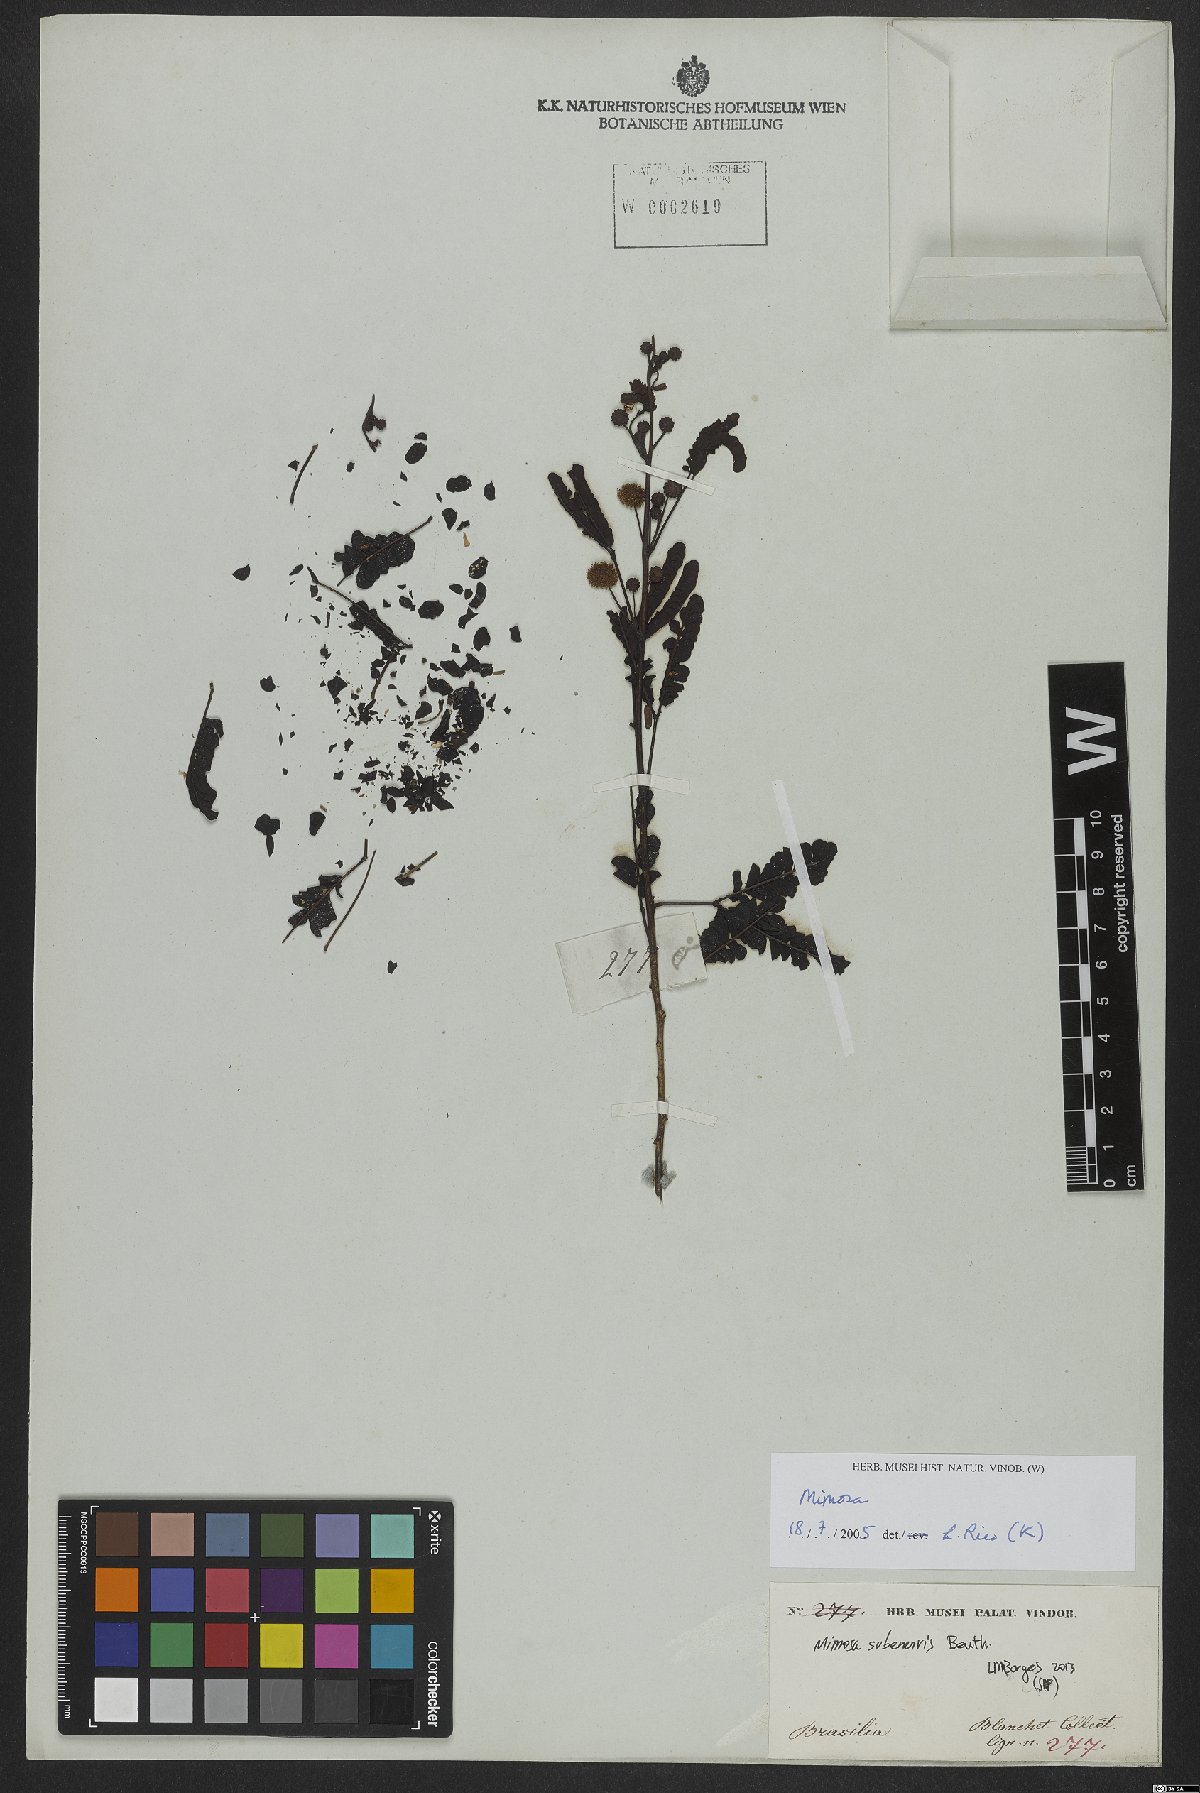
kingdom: Plantae
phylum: Tracheophyta
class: Magnoliopsida
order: Fabales
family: Fabaceae
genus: Mimosa
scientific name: Mimosa subenervis
